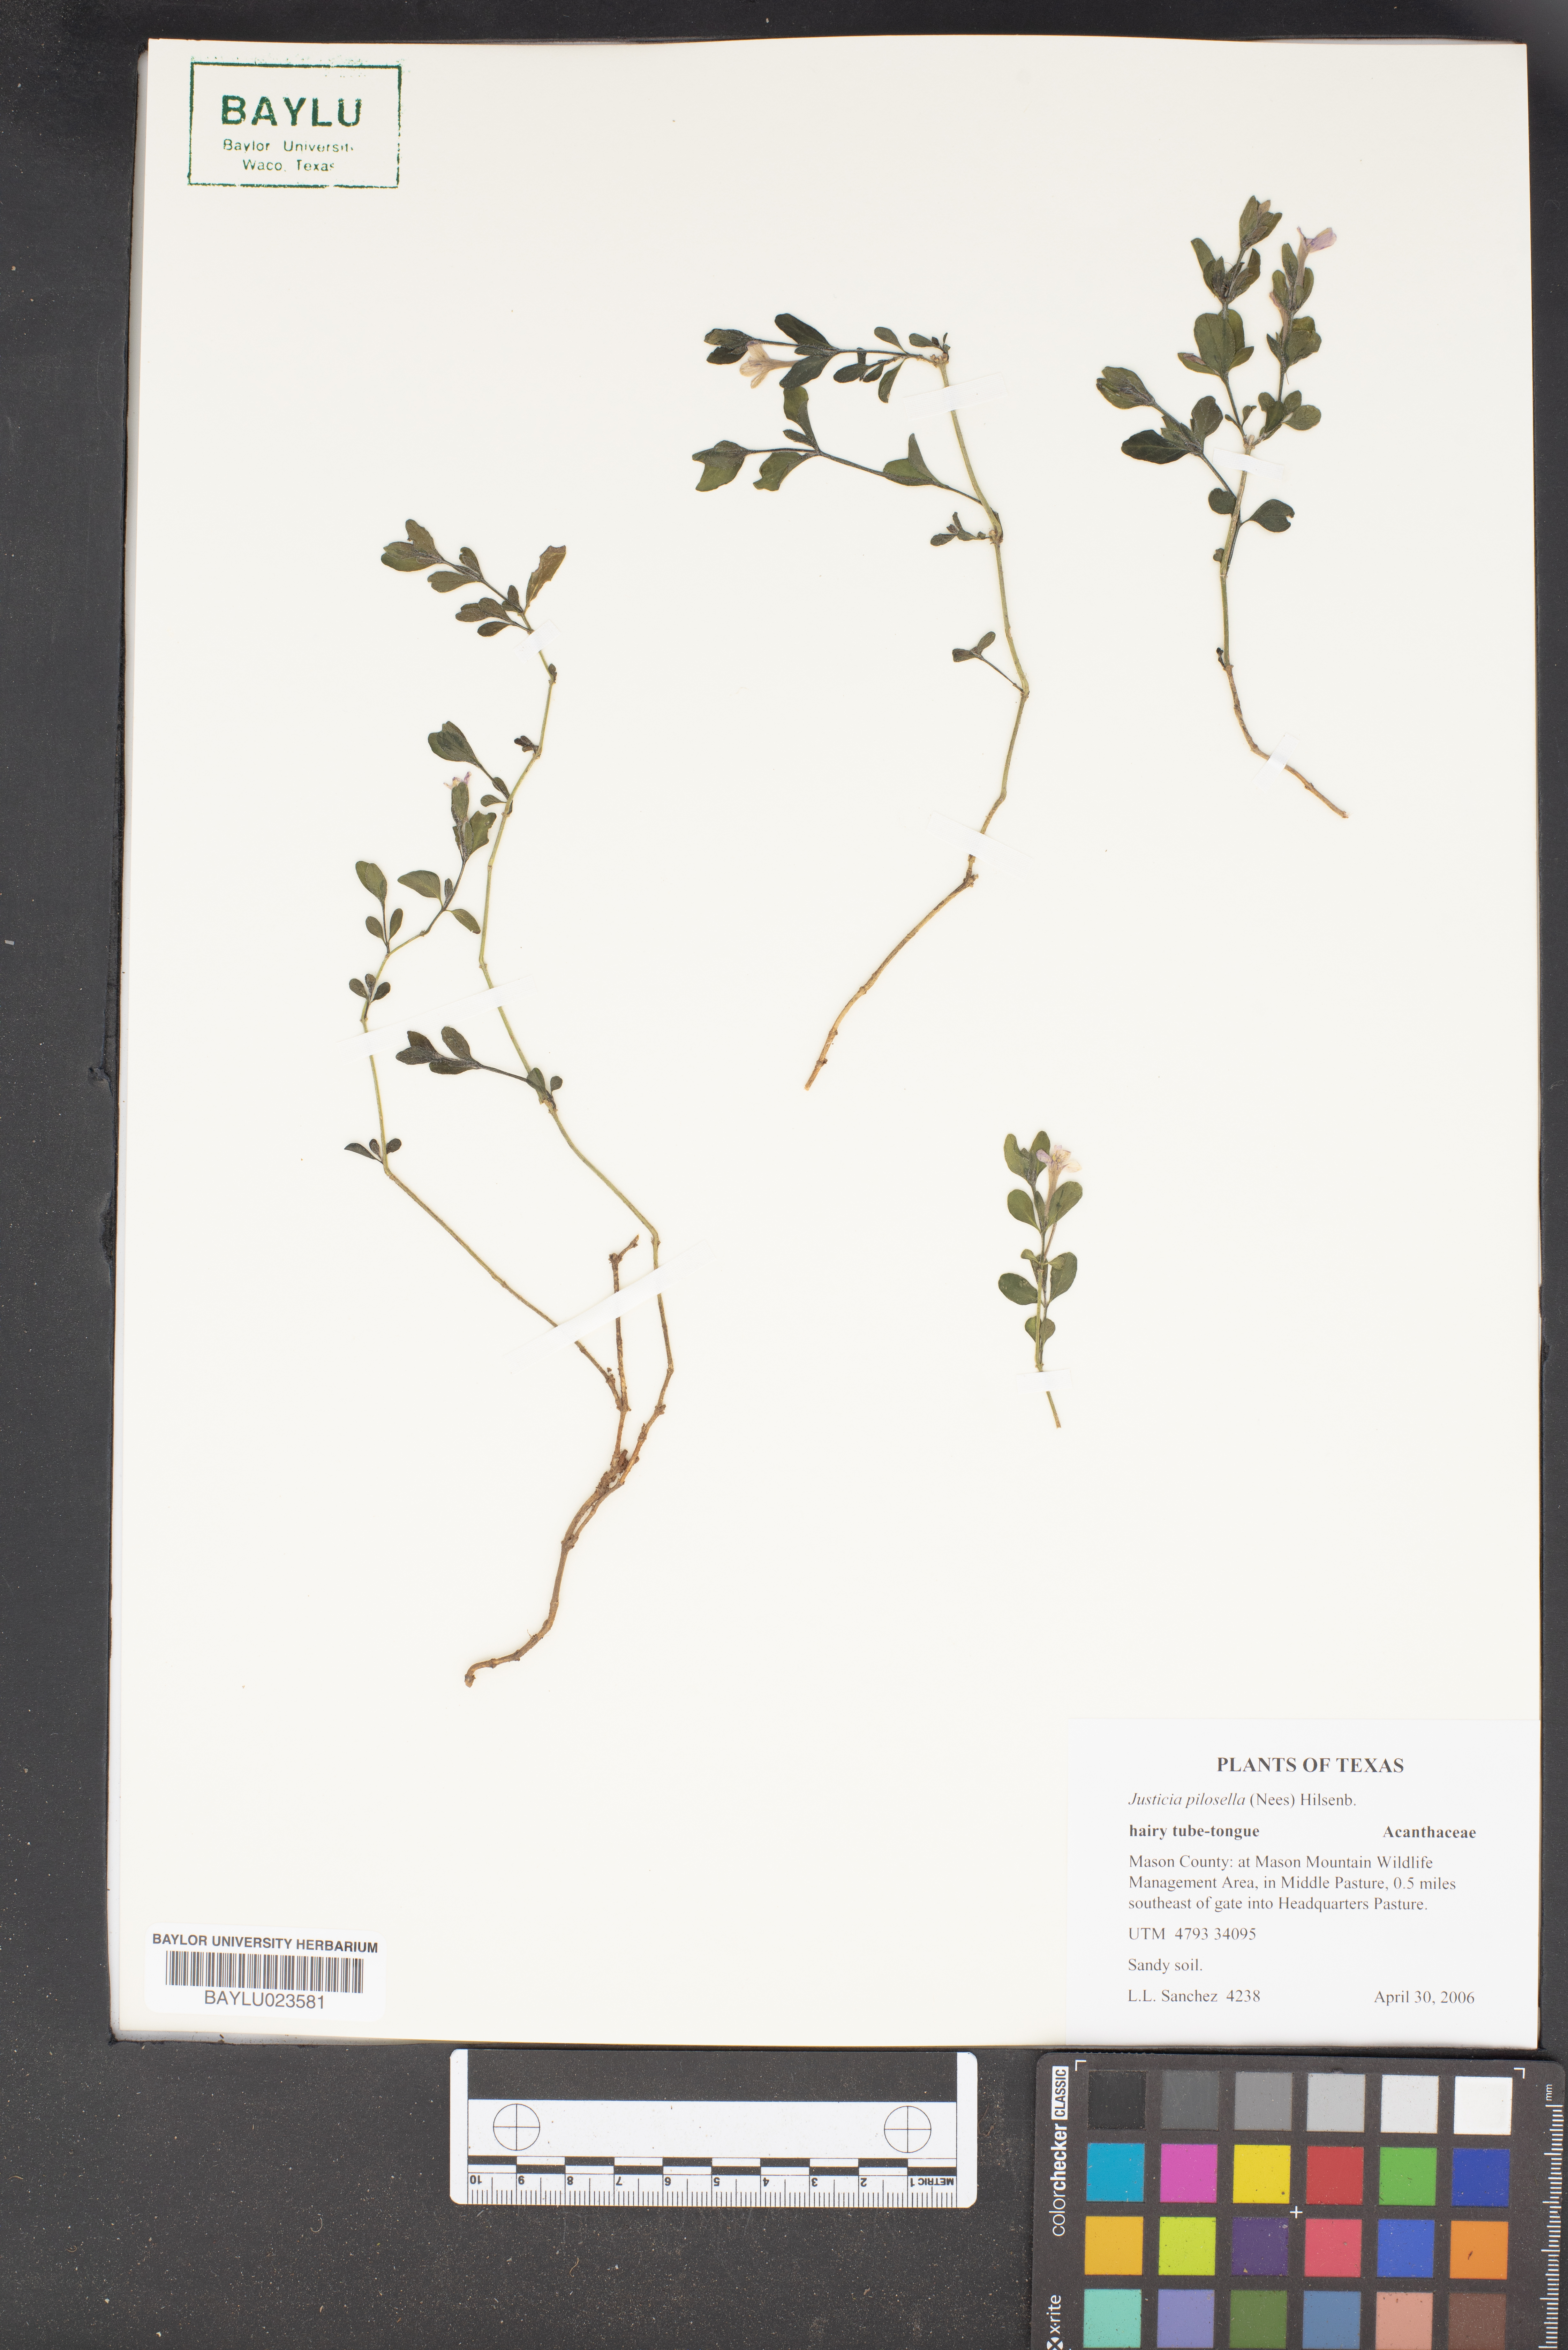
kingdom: Plantae
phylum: Tracheophyta
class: Magnoliopsida
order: Lamiales
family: Acanthaceae
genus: Justicia
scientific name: Justicia pilosella
